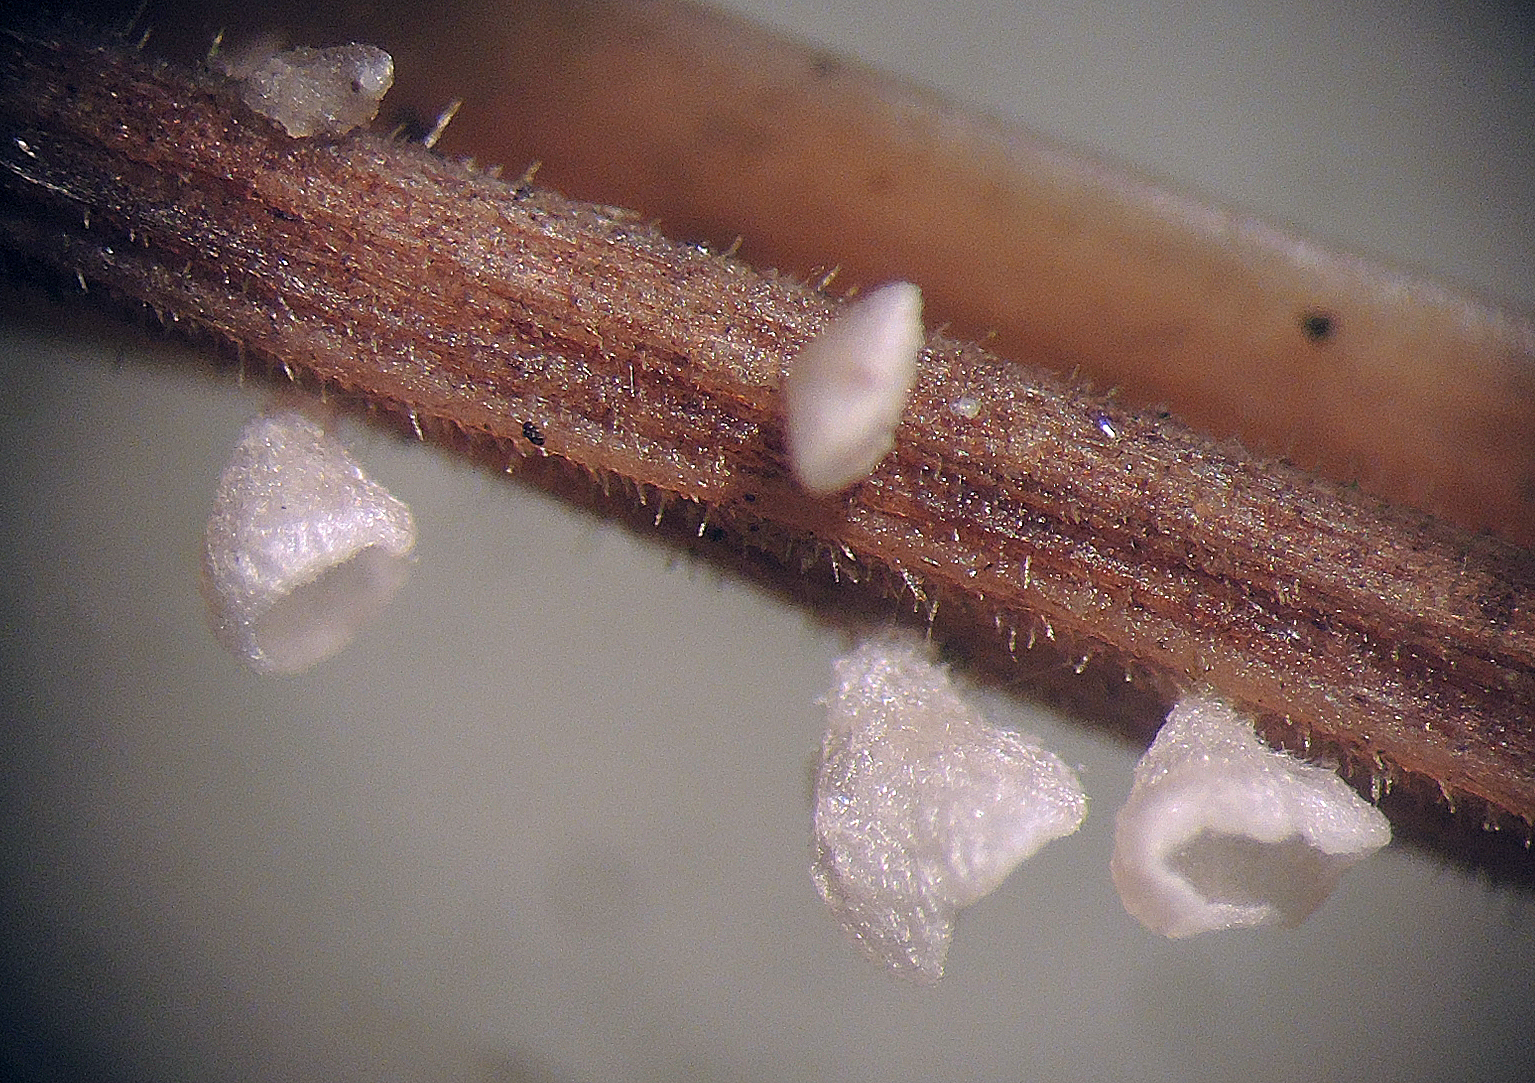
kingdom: Fungi
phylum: Basidiomycota
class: Agaricomycetes
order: Agaricales
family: Marasmiaceae
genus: Calyptella
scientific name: Calyptella gibbosa
